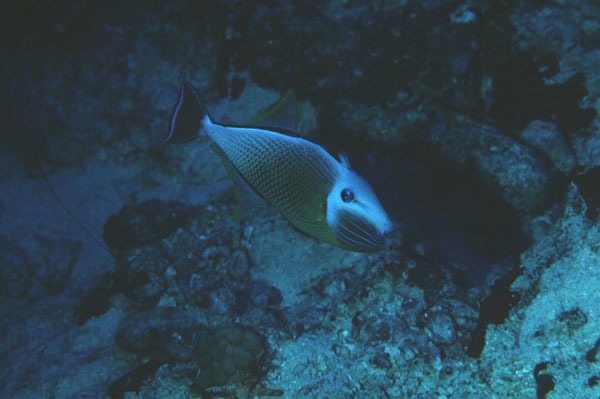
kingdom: Animalia
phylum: Chordata
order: Tetraodontiformes
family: Balistidae
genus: Xanthichthys
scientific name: Xanthichthys mento
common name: Blue-throat trigger
